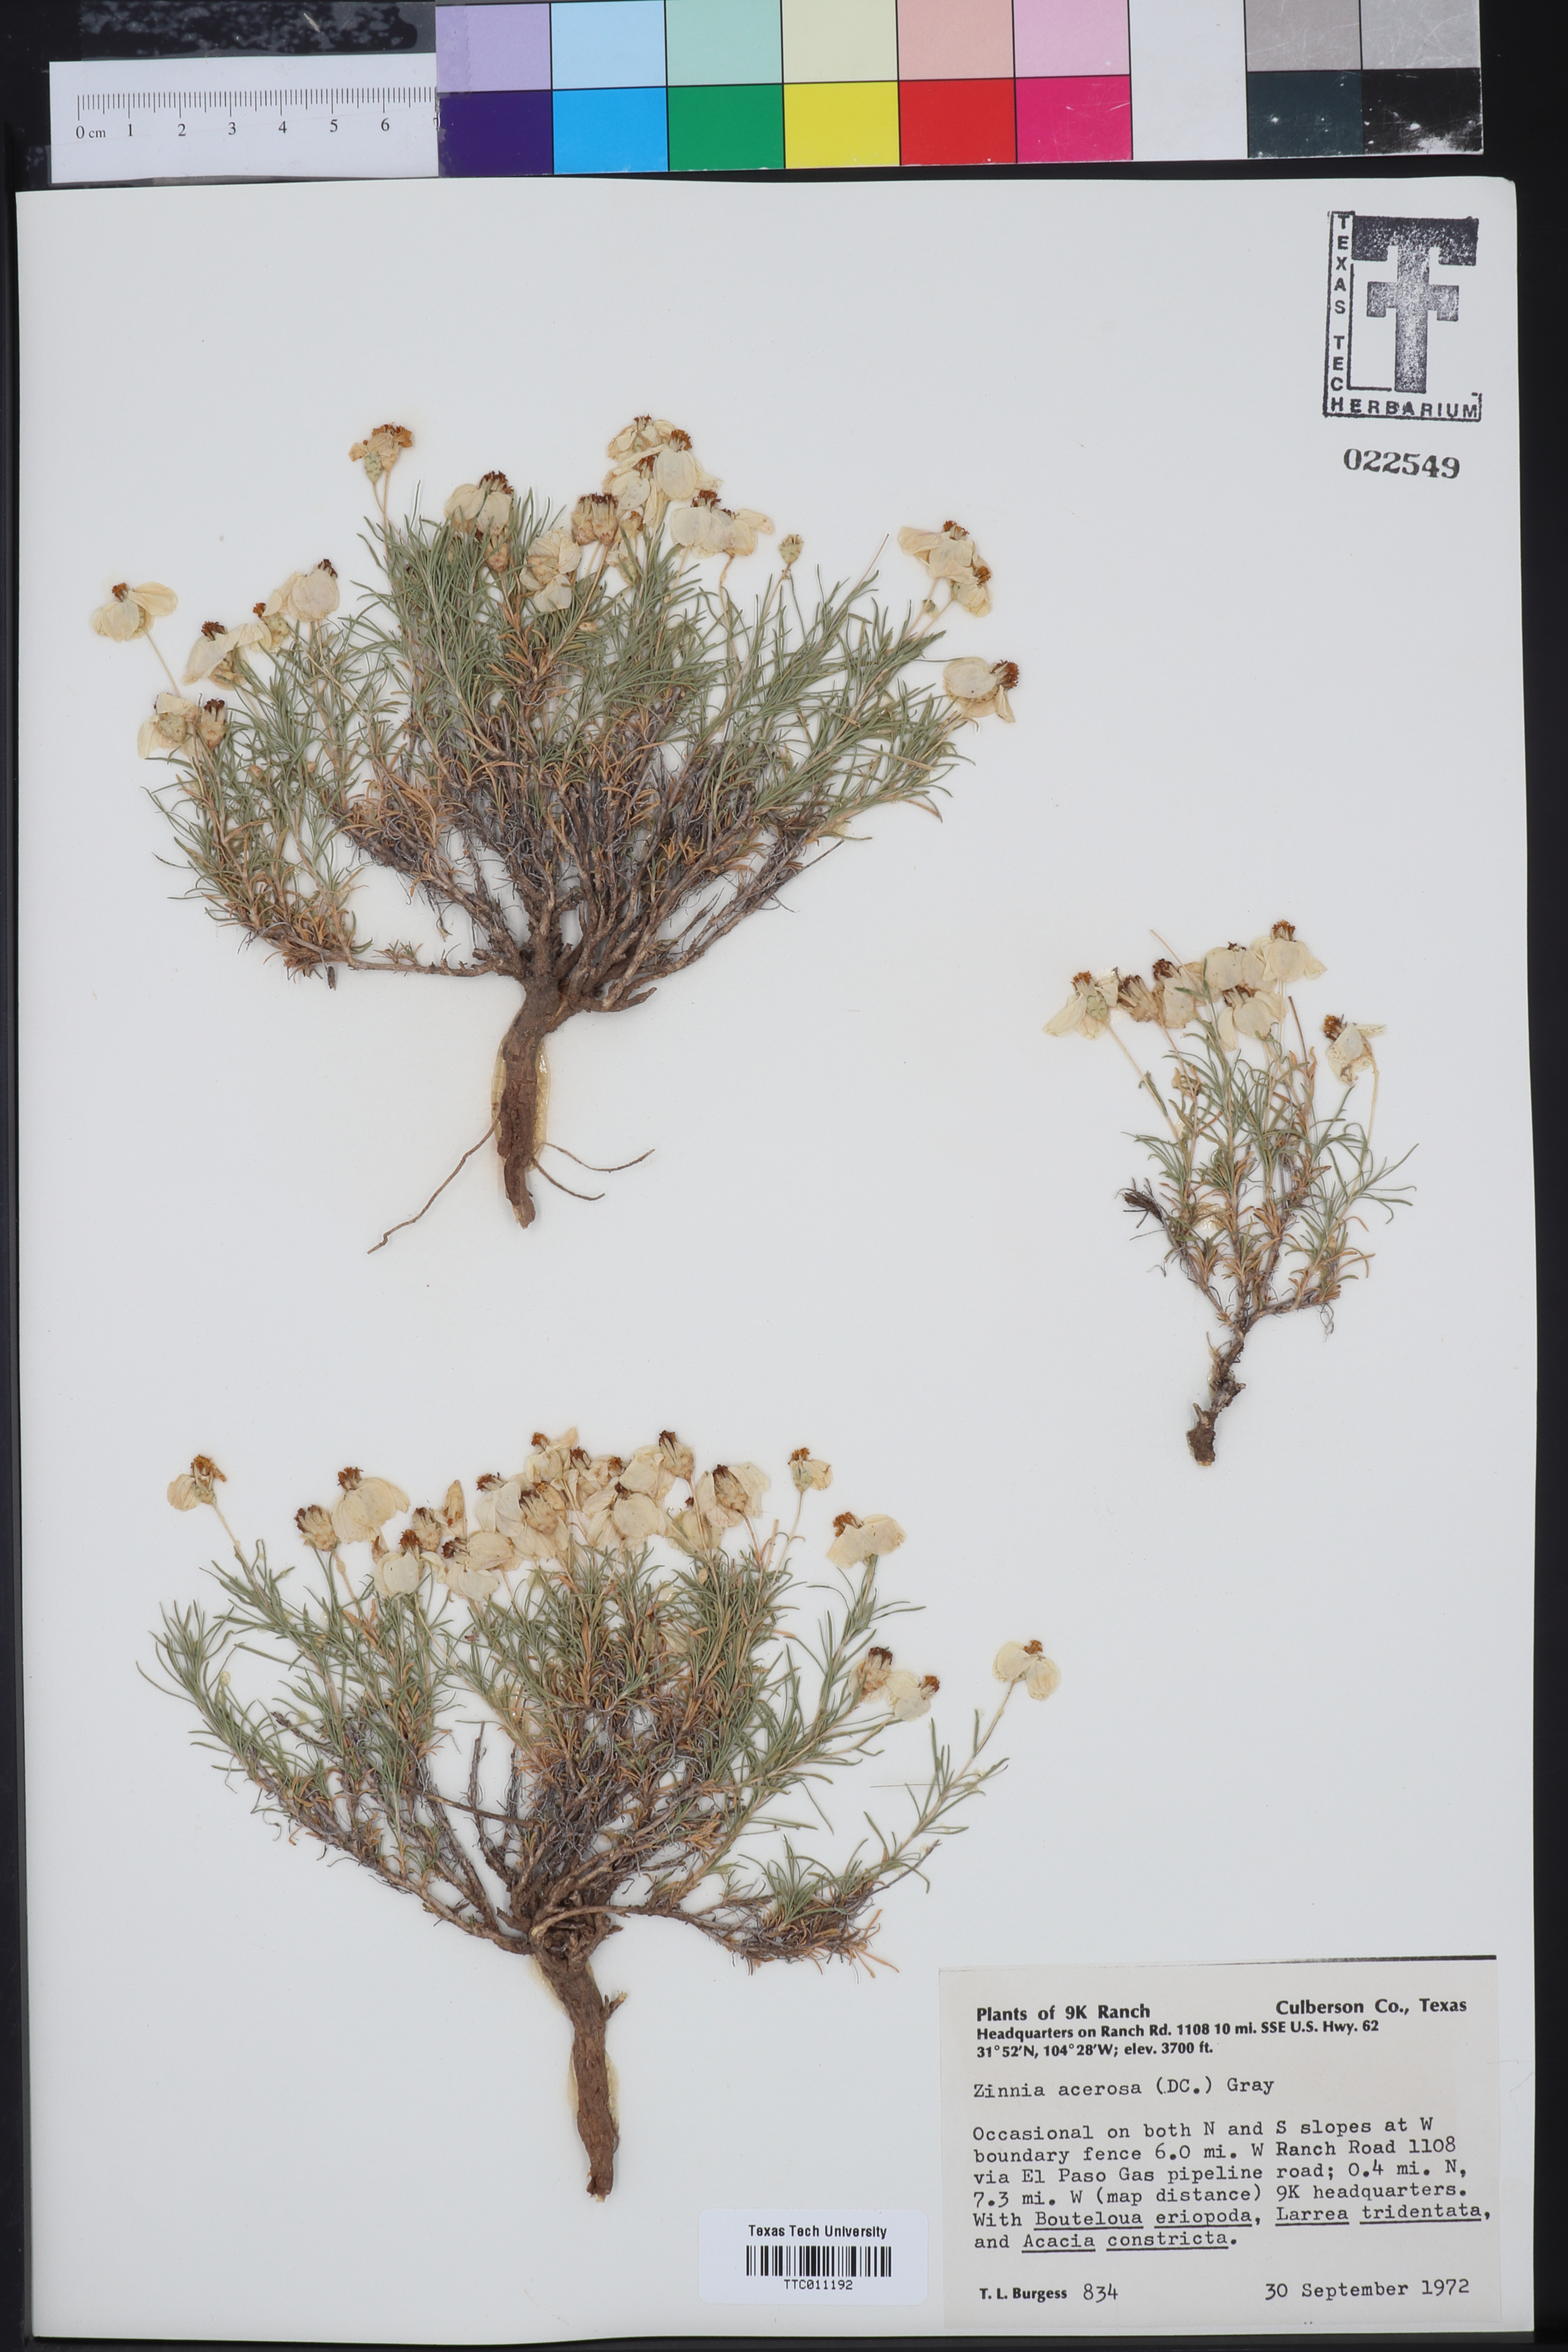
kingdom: Plantae
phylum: Tracheophyta
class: Magnoliopsida
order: Asterales
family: Asteraceae
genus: Zinnia
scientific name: Zinnia acerosa
